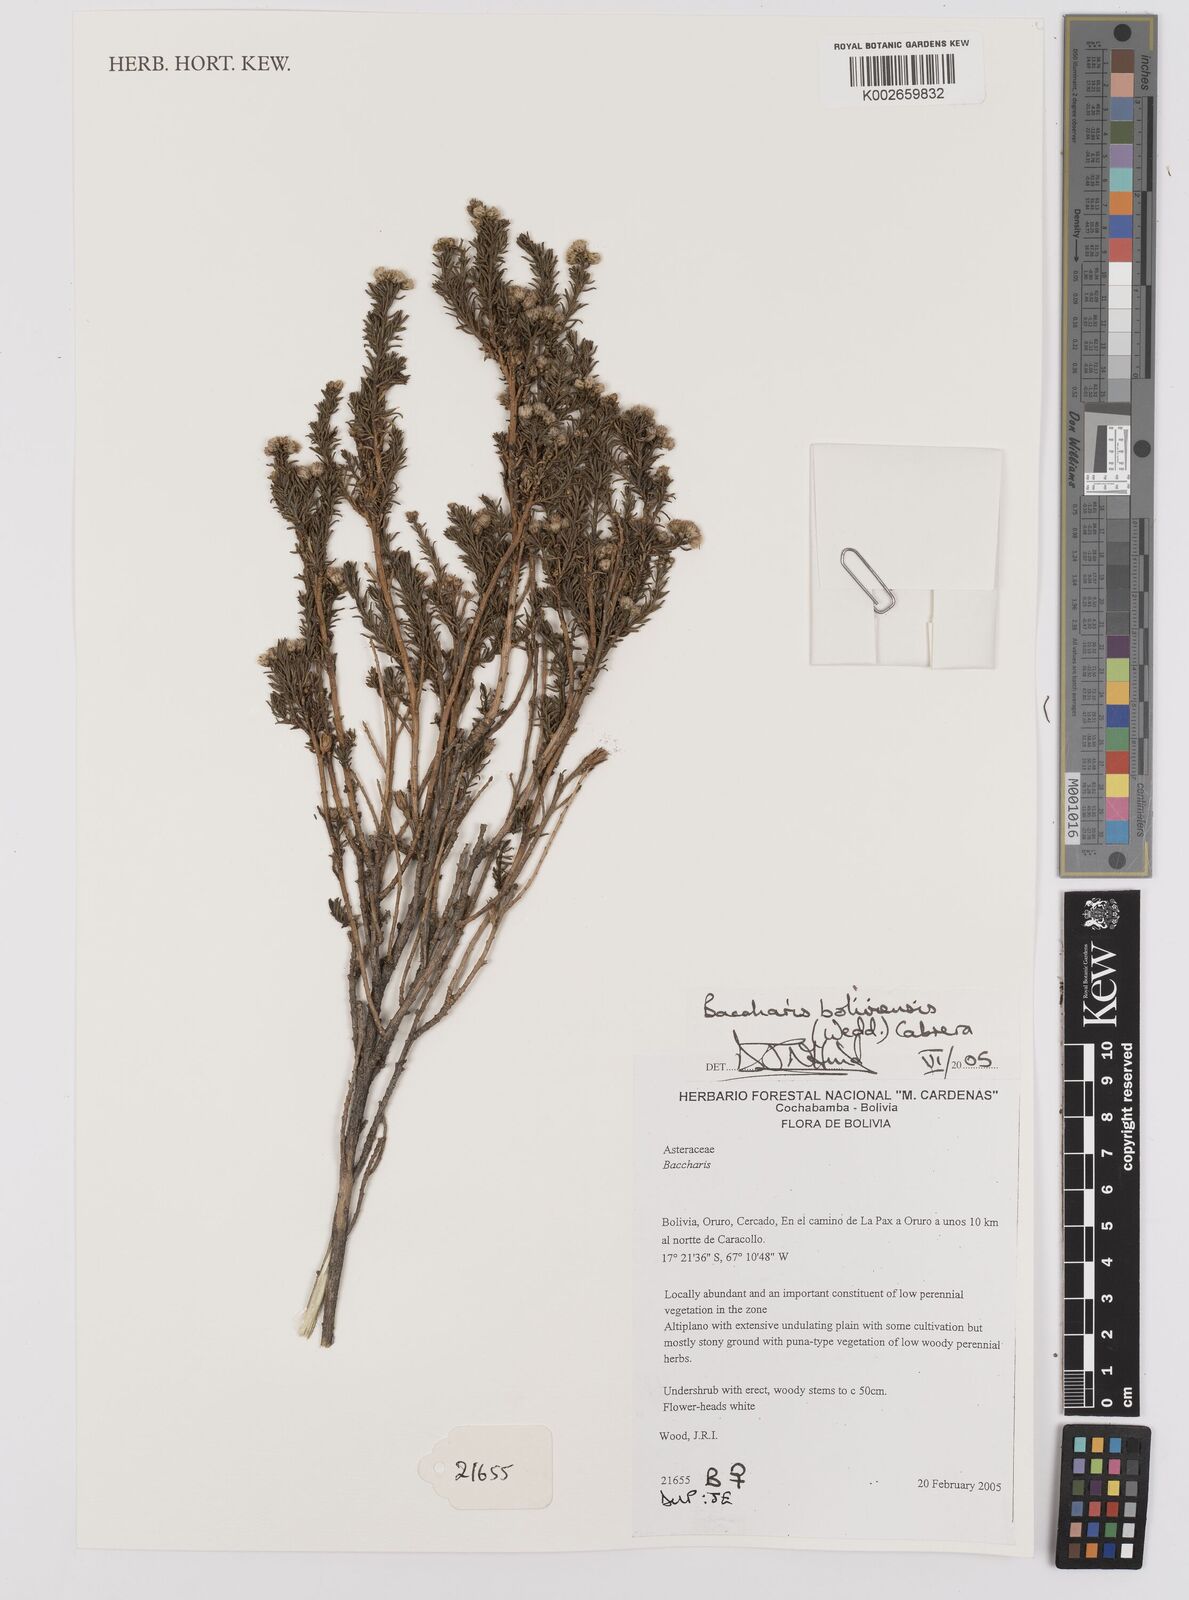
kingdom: Plantae
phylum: Tracheophyta
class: Magnoliopsida
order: Asterales
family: Asteraceae
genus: Baccharis
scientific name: Baccharis bolivensis
